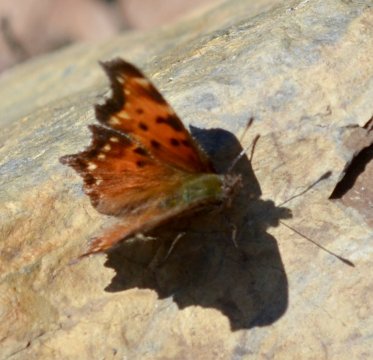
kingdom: Animalia
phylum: Arthropoda
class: Insecta
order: Lepidoptera
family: Nymphalidae
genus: Polygonia
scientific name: Polygonia faunus
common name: Green Comma
